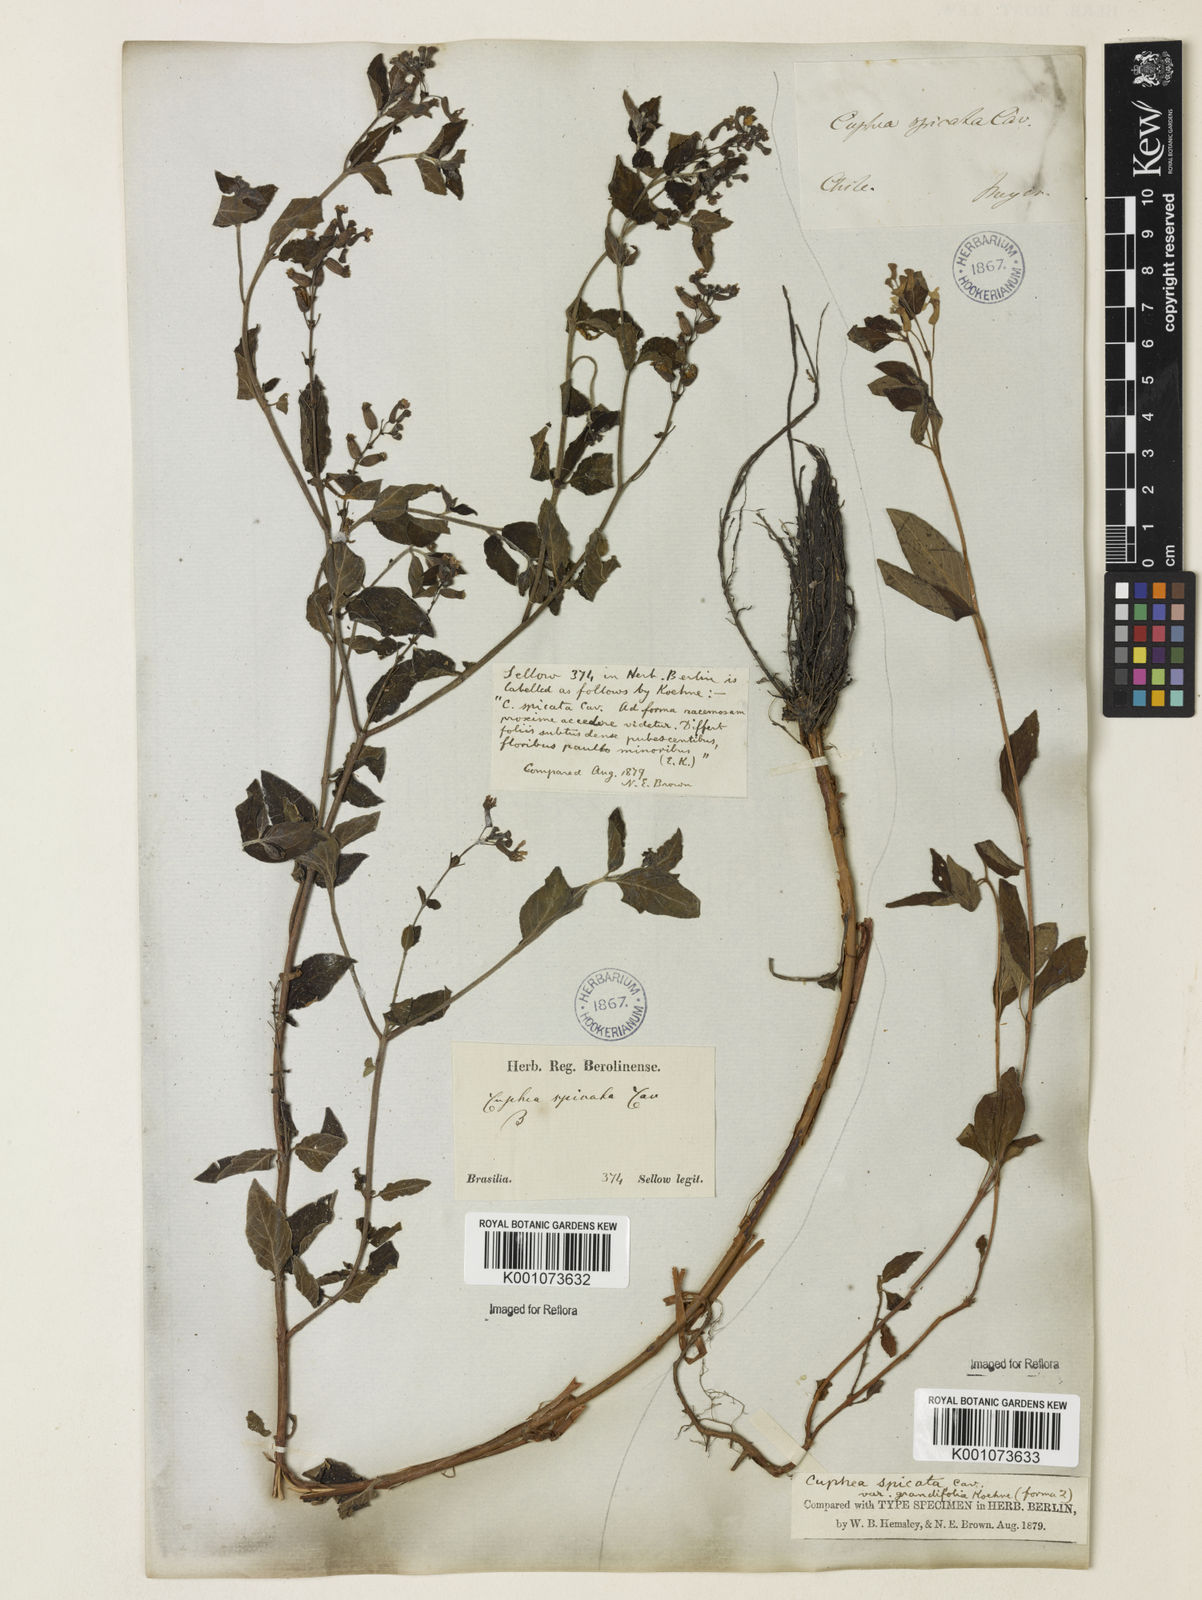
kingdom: Plantae
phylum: Tracheophyta
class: Magnoliopsida
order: Myrtales
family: Lythraceae
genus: Cuphea
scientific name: Cuphea racemosa
